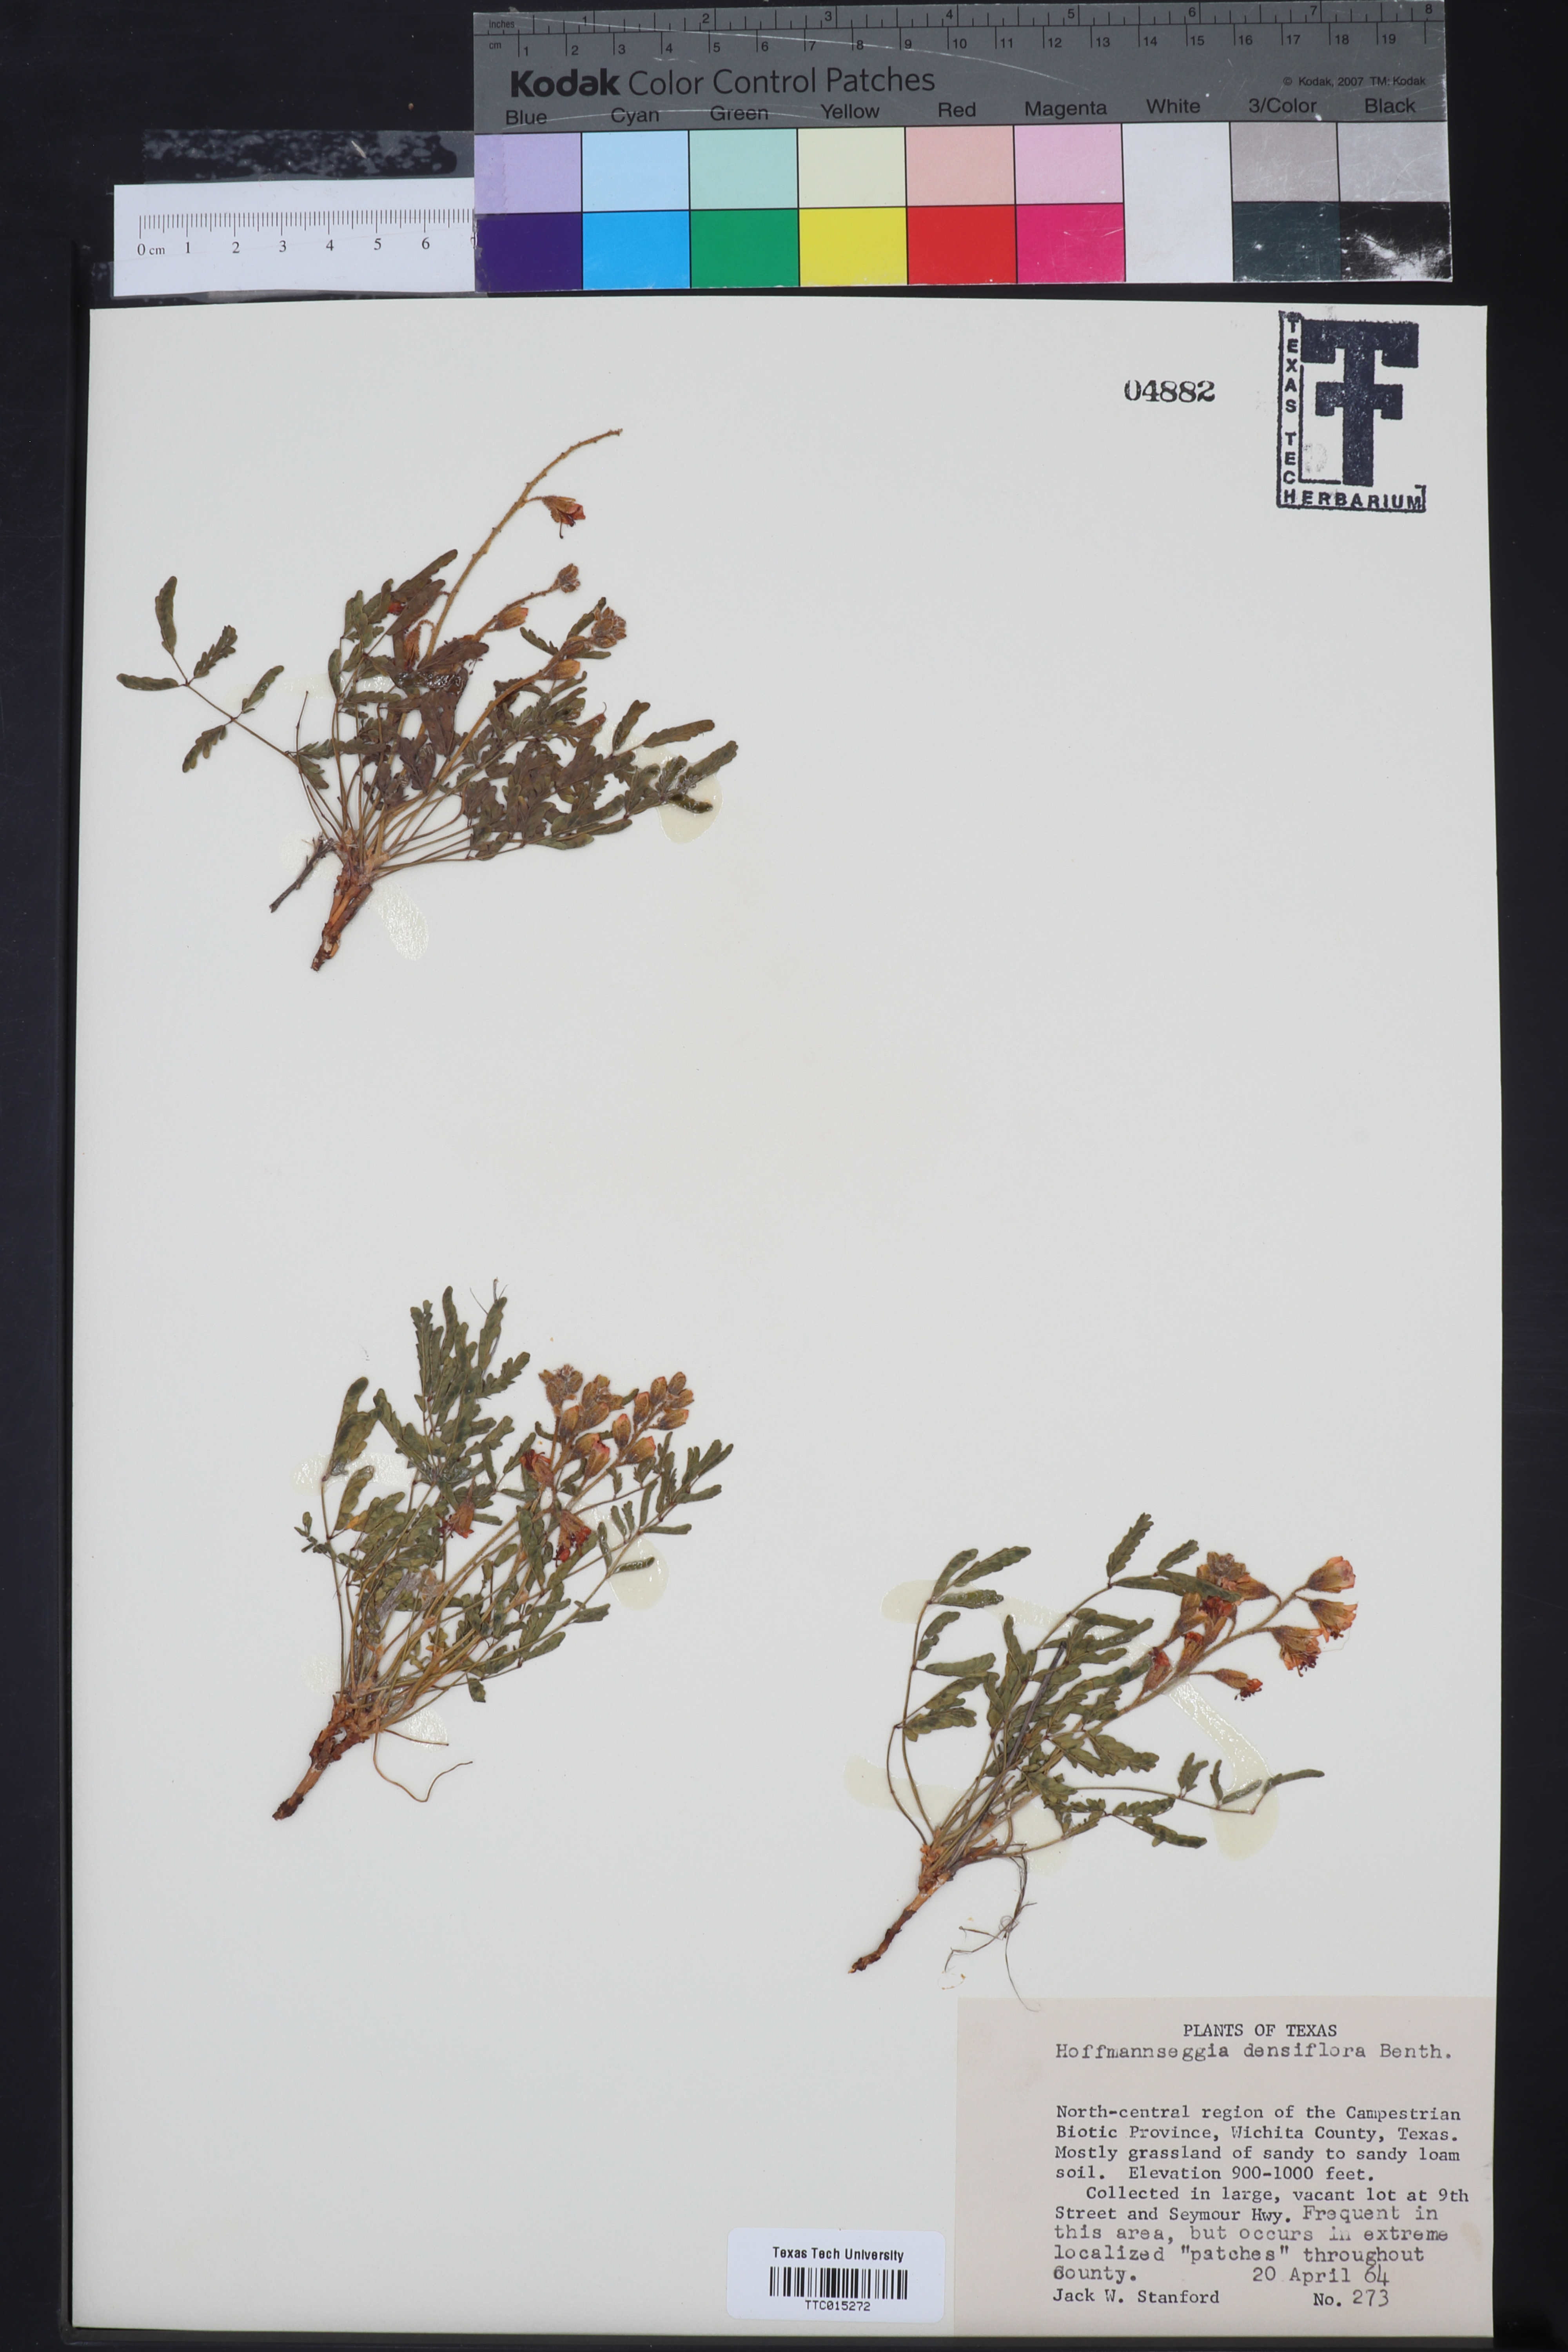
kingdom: Plantae
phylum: Tracheophyta
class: Magnoliopsida
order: Fabales
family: Fabaceae
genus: Hoffmannseggia
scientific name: Hoffmannseggia glauca
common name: Pignut
